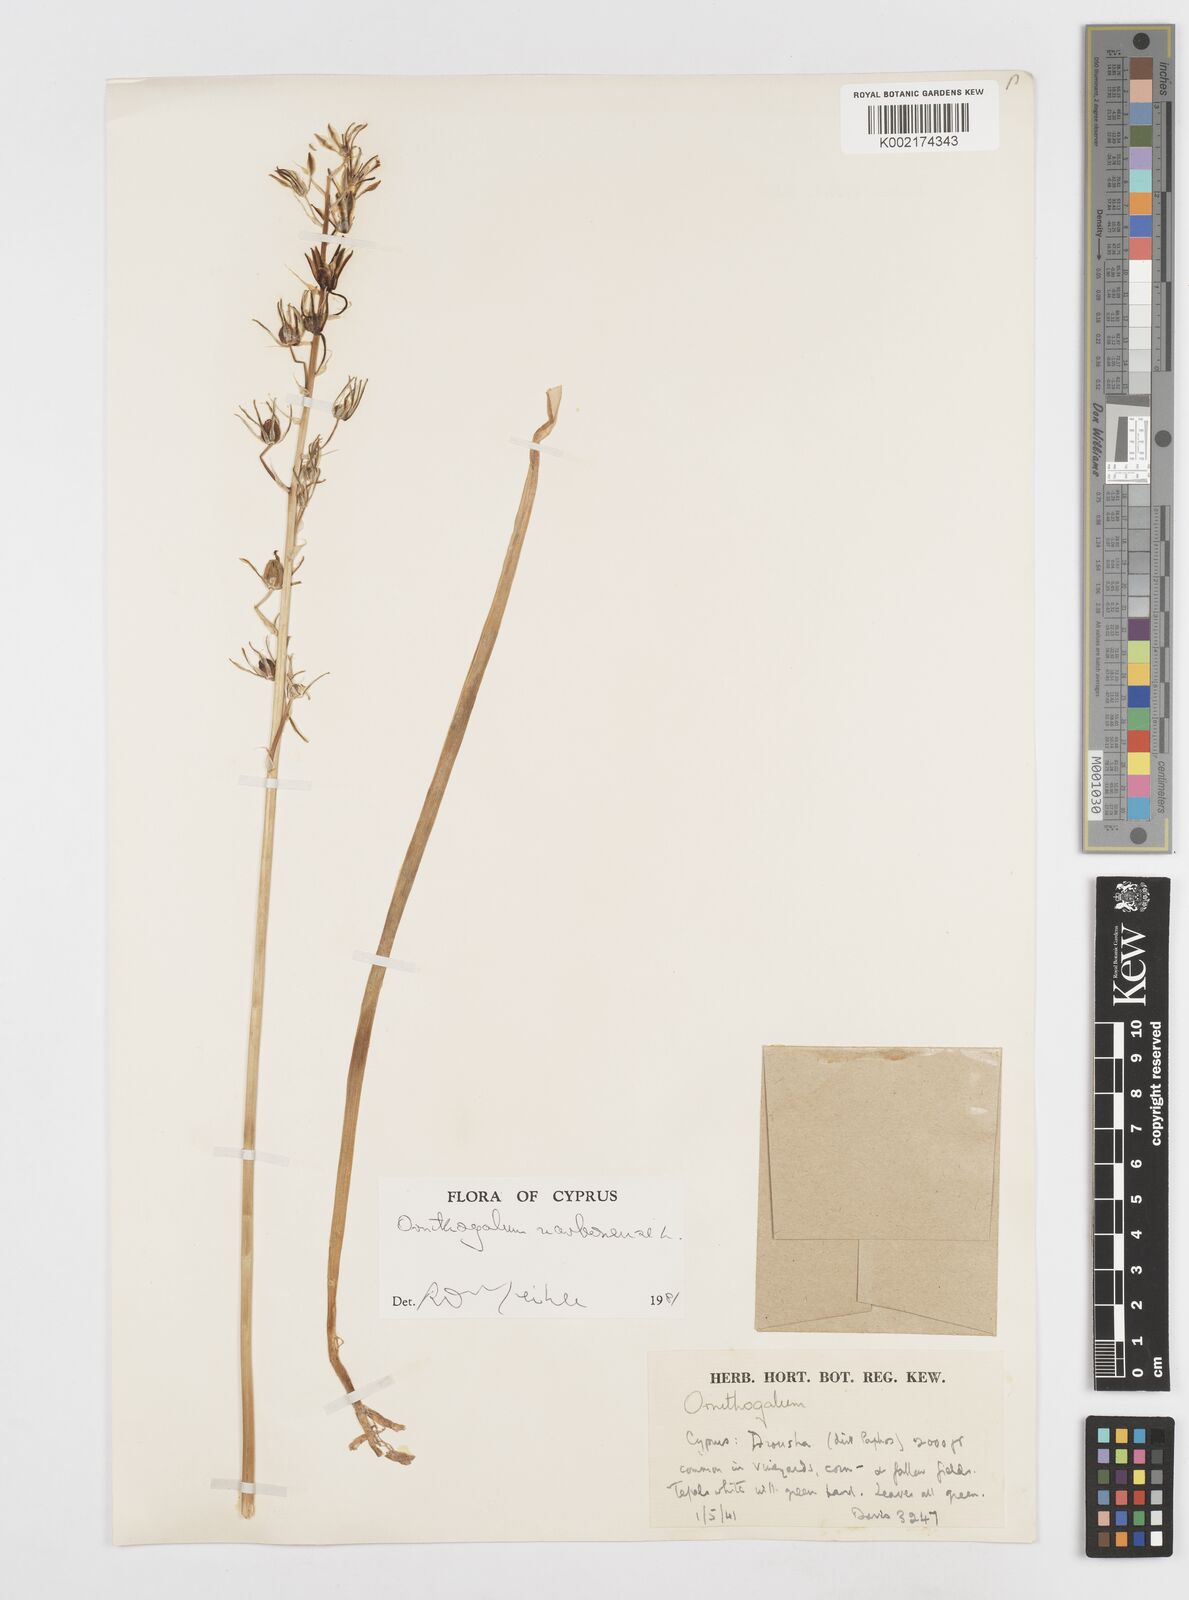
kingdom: Plantae
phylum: Tracheophyta
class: Liliopsida
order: Asparagales
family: Asparagaceae
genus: Ornithogalum
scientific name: Ornithogalum narbonense
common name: Bath-asparagus
